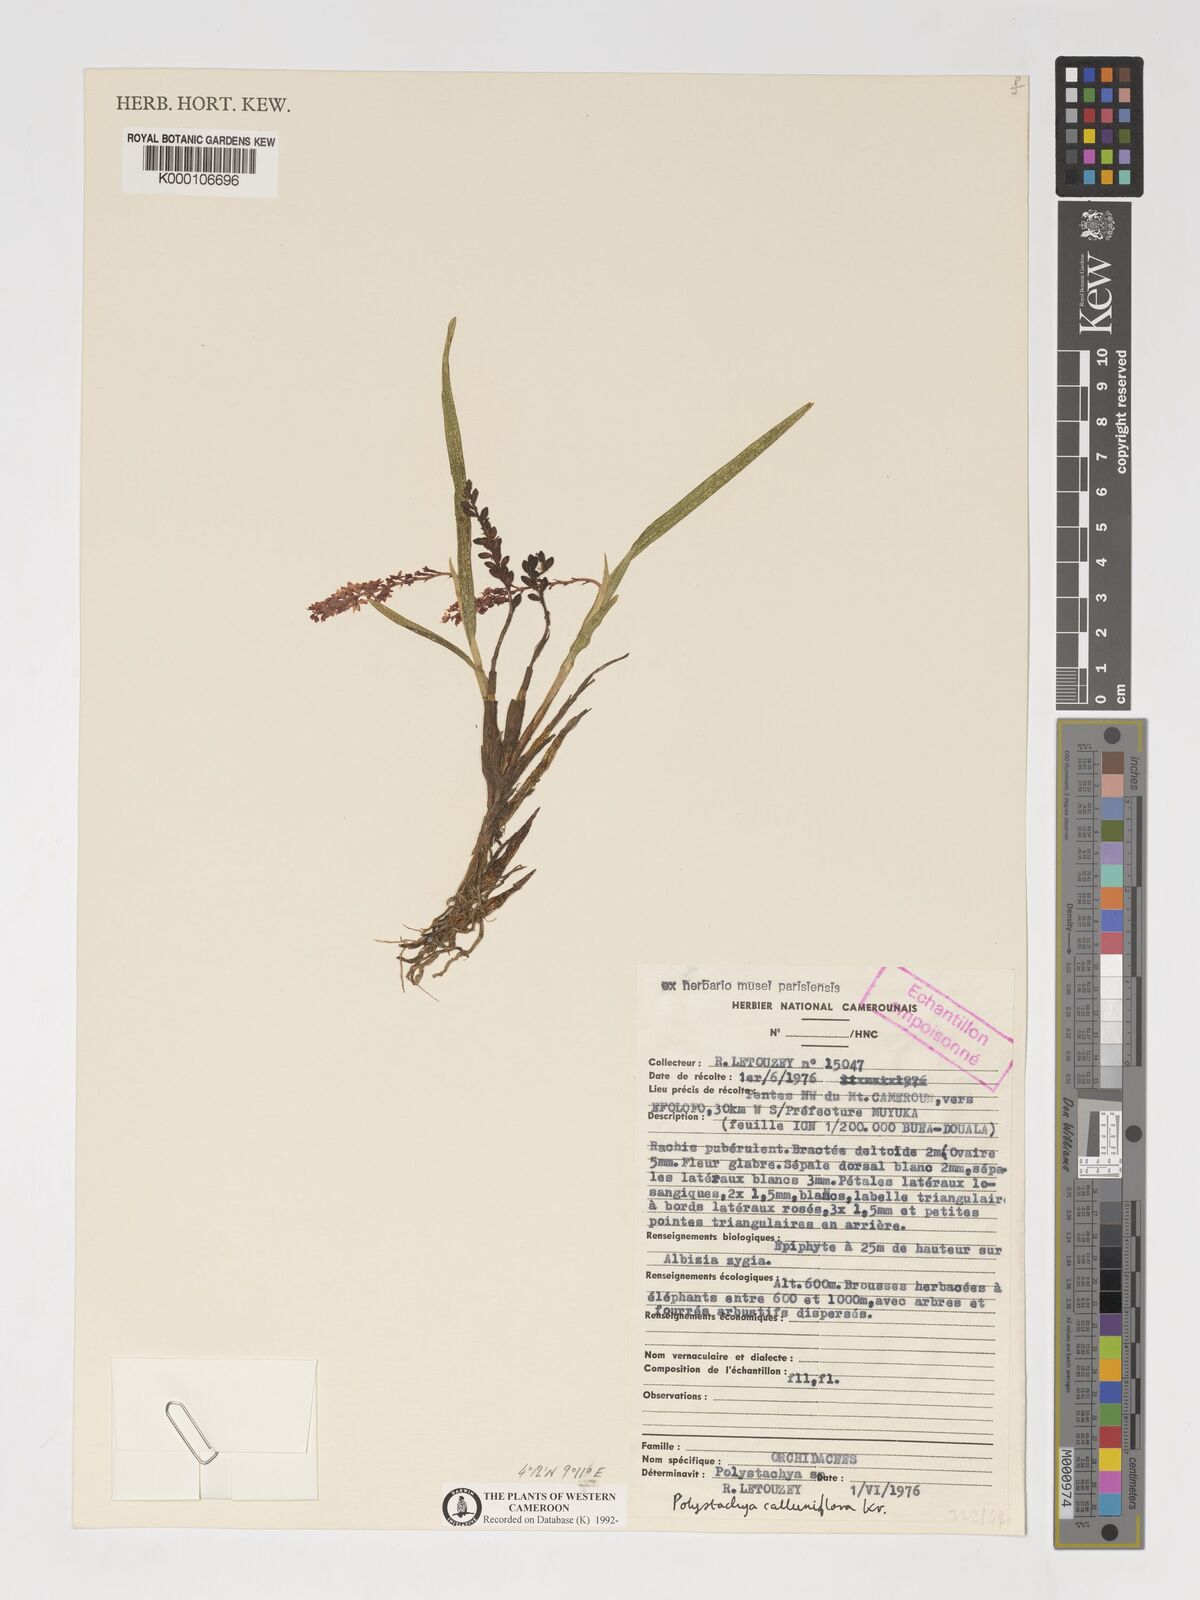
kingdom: Plantae
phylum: Tracheophyta
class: Liliopsida
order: Asparagales
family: Orchidaceae
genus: Polystachya
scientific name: Polystachya calluniflora
